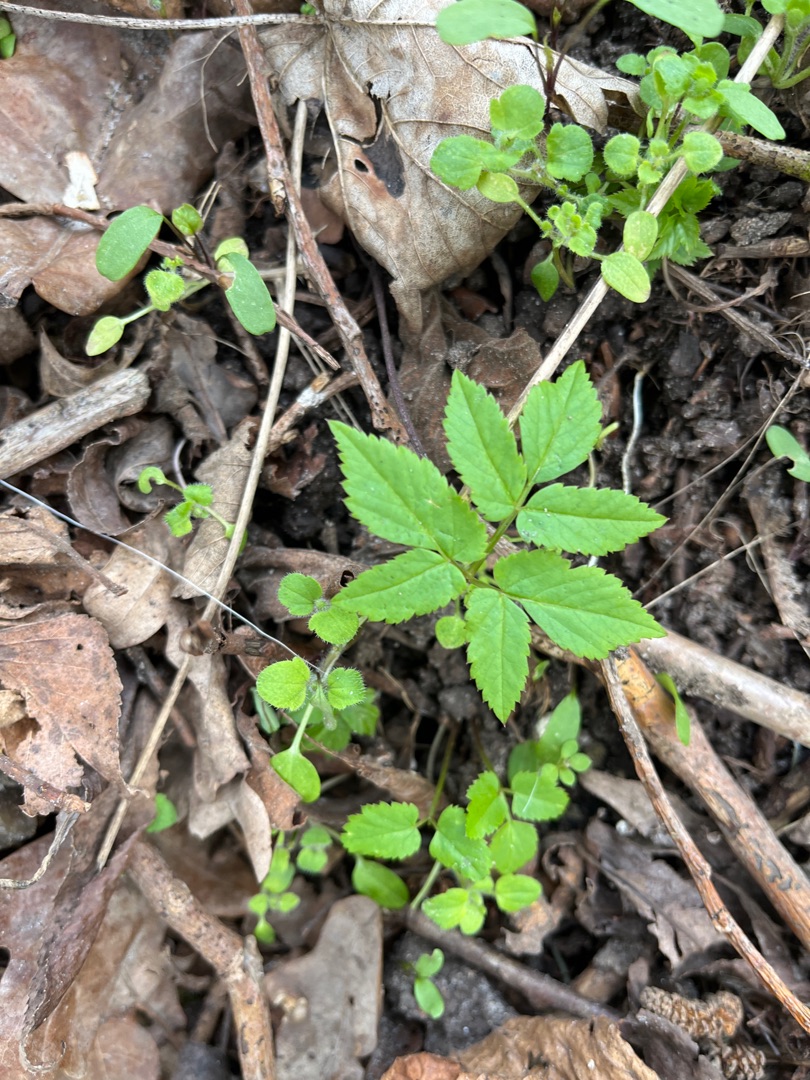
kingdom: Plantae
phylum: Tracheophyta
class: Magnoliopsida
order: Apiales
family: Apiaceae
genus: Aegopodium
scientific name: Aegopodium podagraria
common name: Skvalderkål
